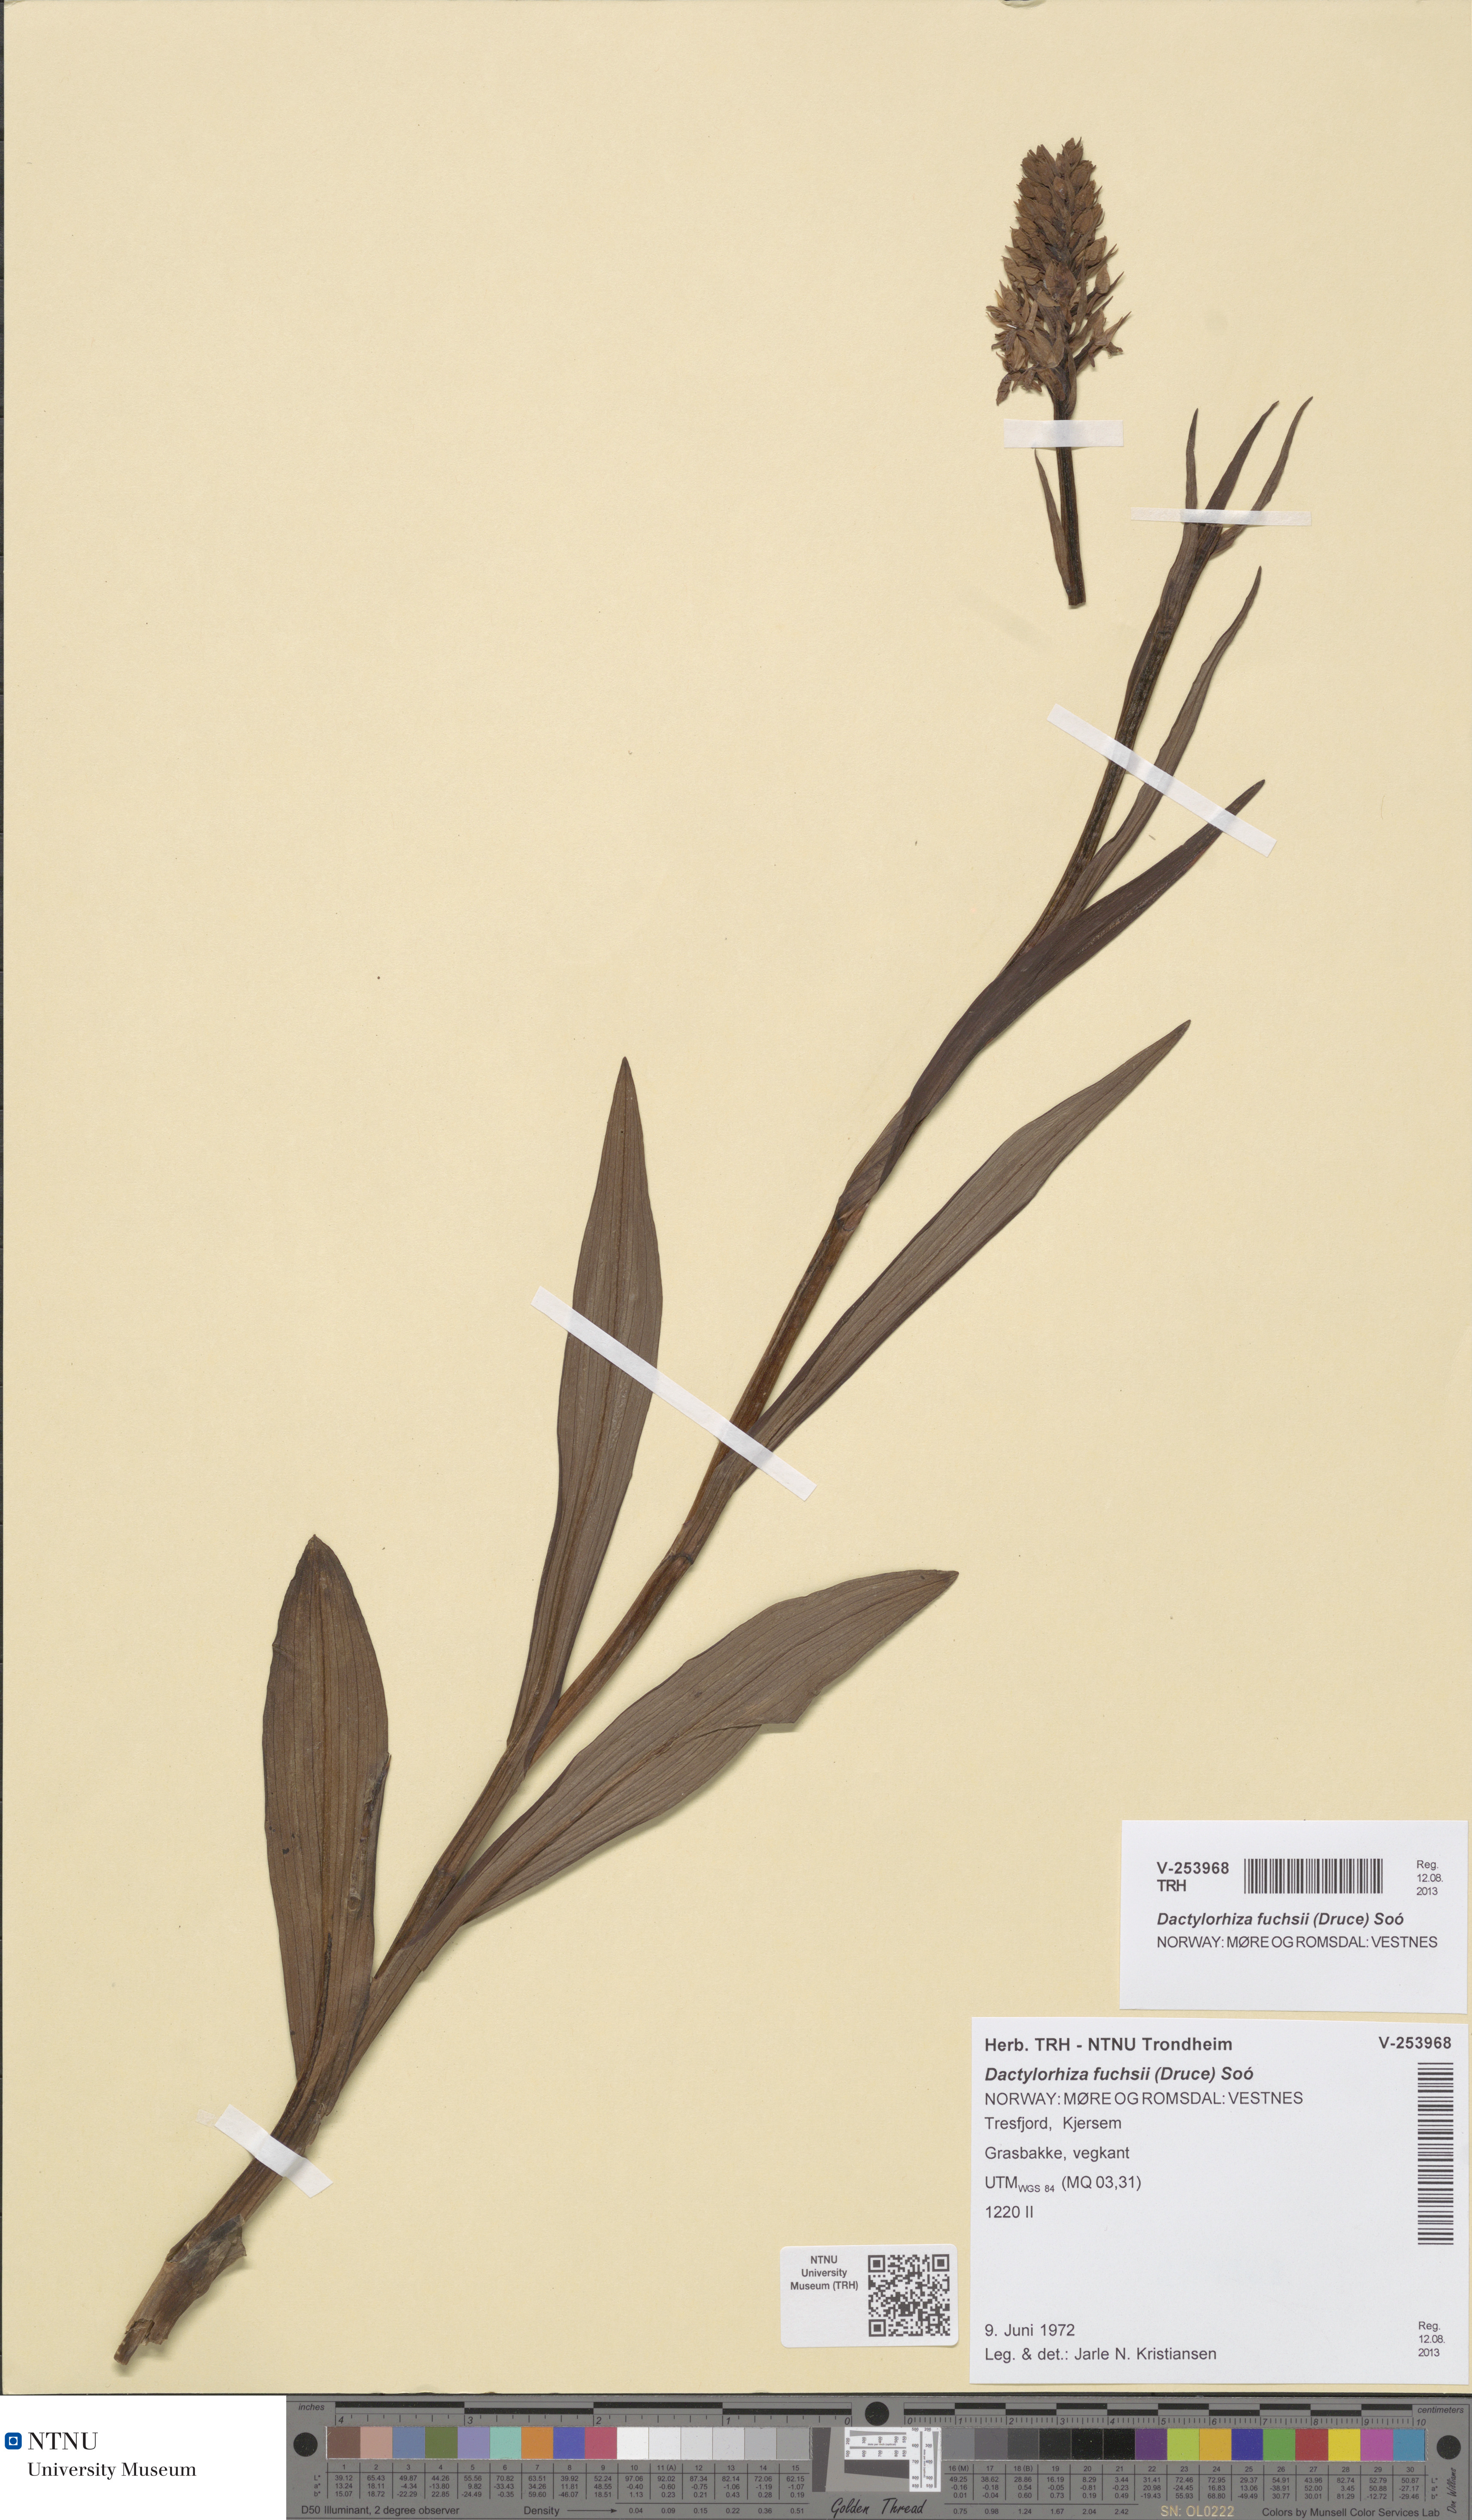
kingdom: Plantae
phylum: Tracheophyta
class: Liliopsida
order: Asparagales
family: Orchidaceae
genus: Dactylorhiza
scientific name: Dactylorhiza maculata
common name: Heath spotted-orchid
